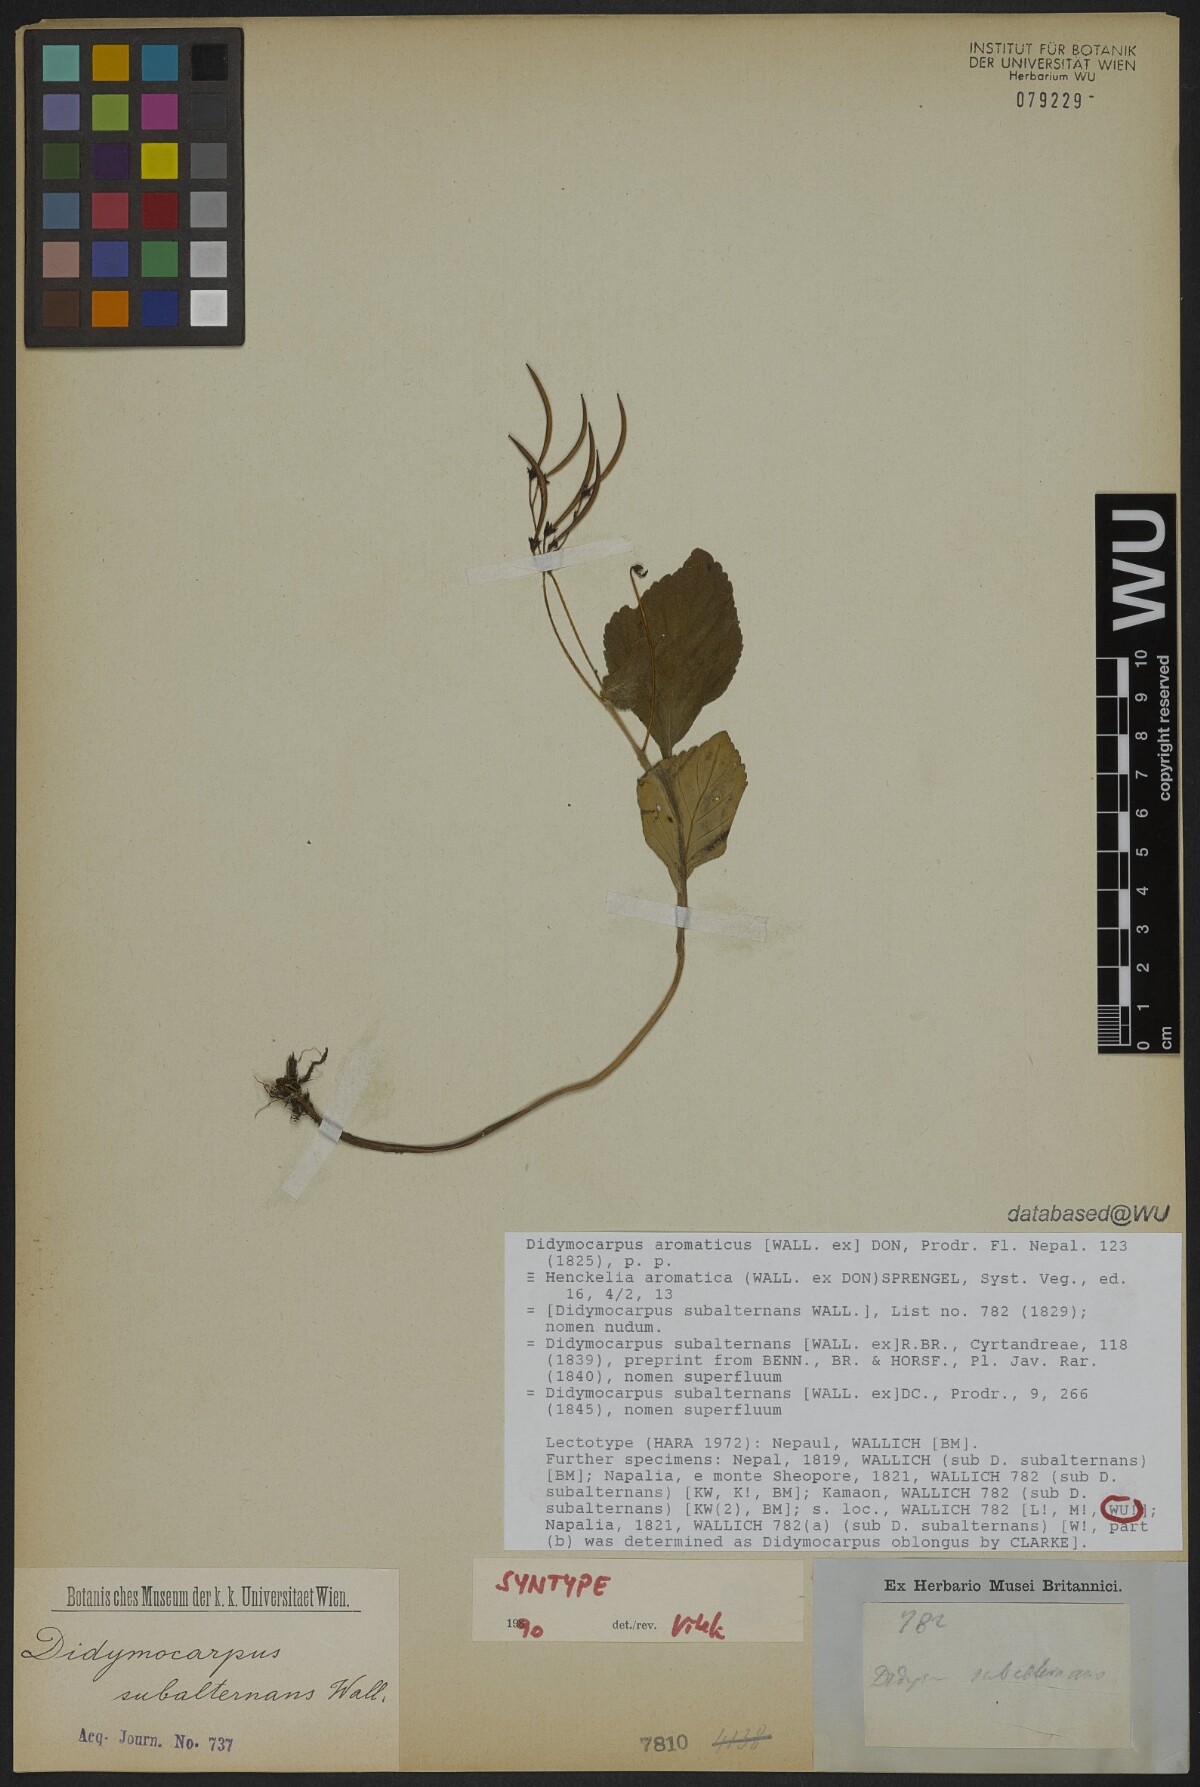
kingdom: Plantae
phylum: Tracheophyta
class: Magnoliopsida
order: Lamiales
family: Gesneriaceae
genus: Didymocarpus
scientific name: Didymocarpus aromaticus
